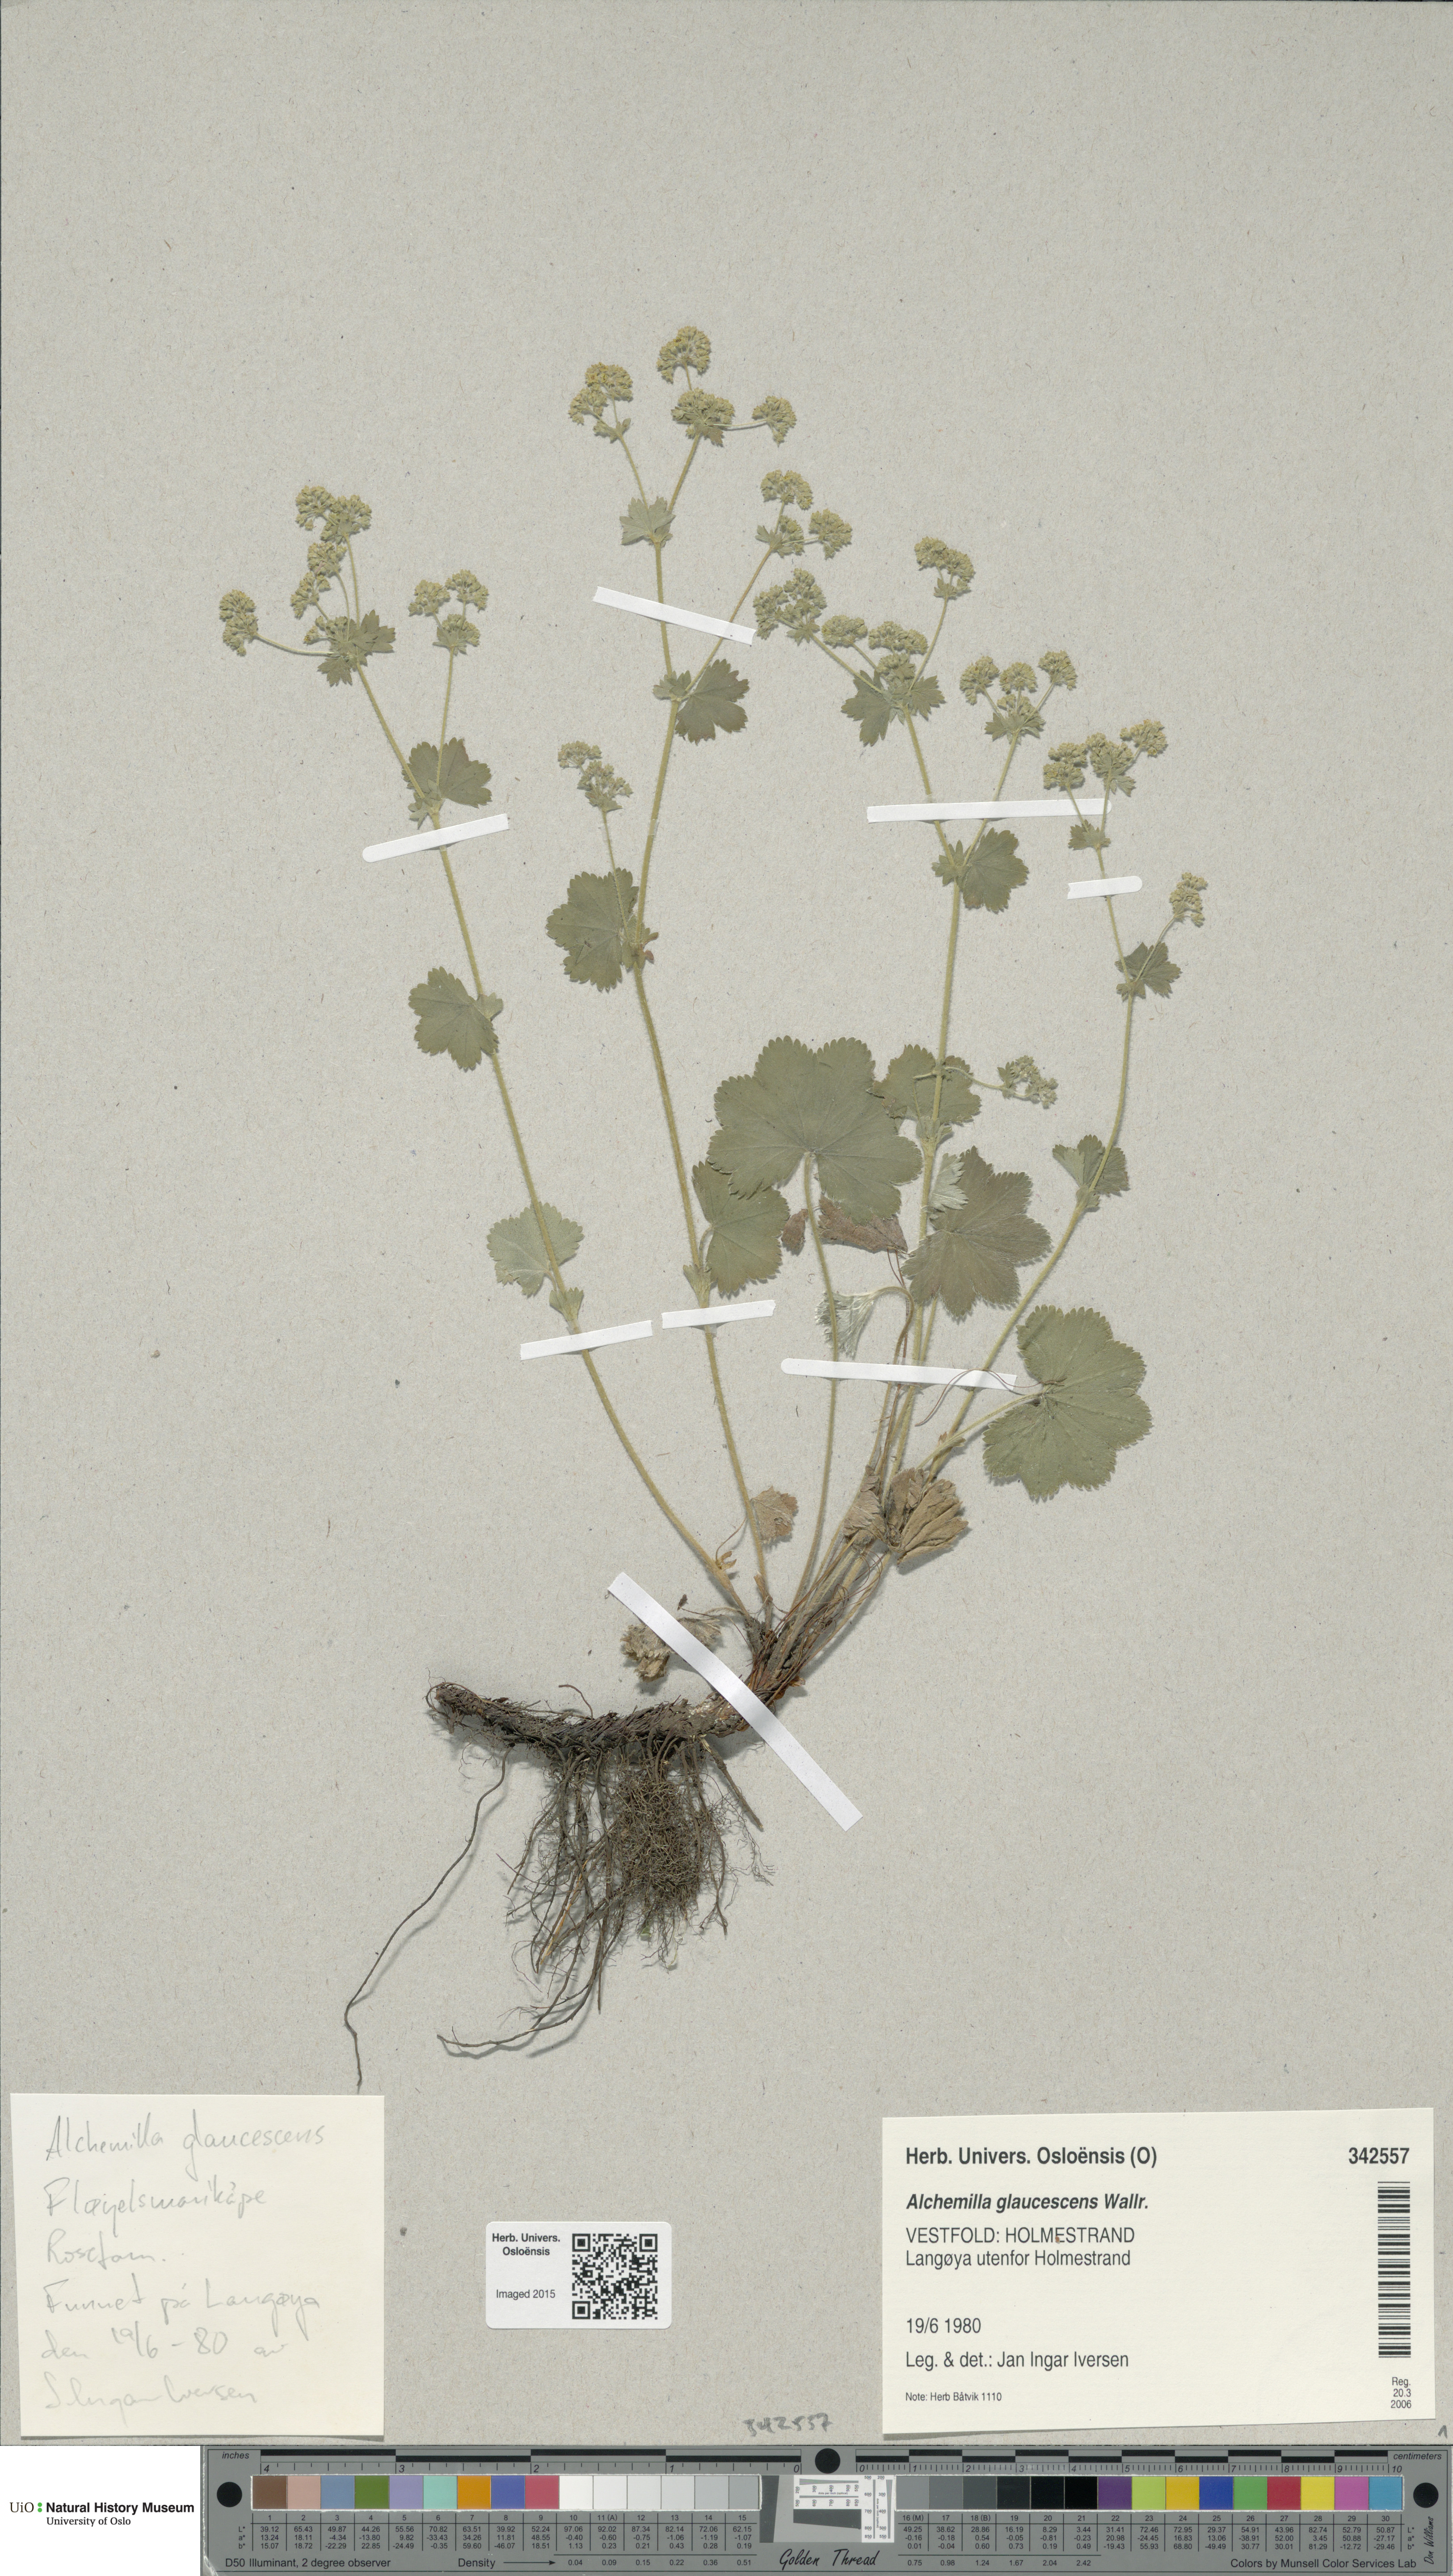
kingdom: Plantae
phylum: Tracheophyta
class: Magnoliopsida
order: Rosales
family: Rosaceae
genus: Alchemilla
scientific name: Alchemilla glaucescens
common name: Silky lady's mantle
